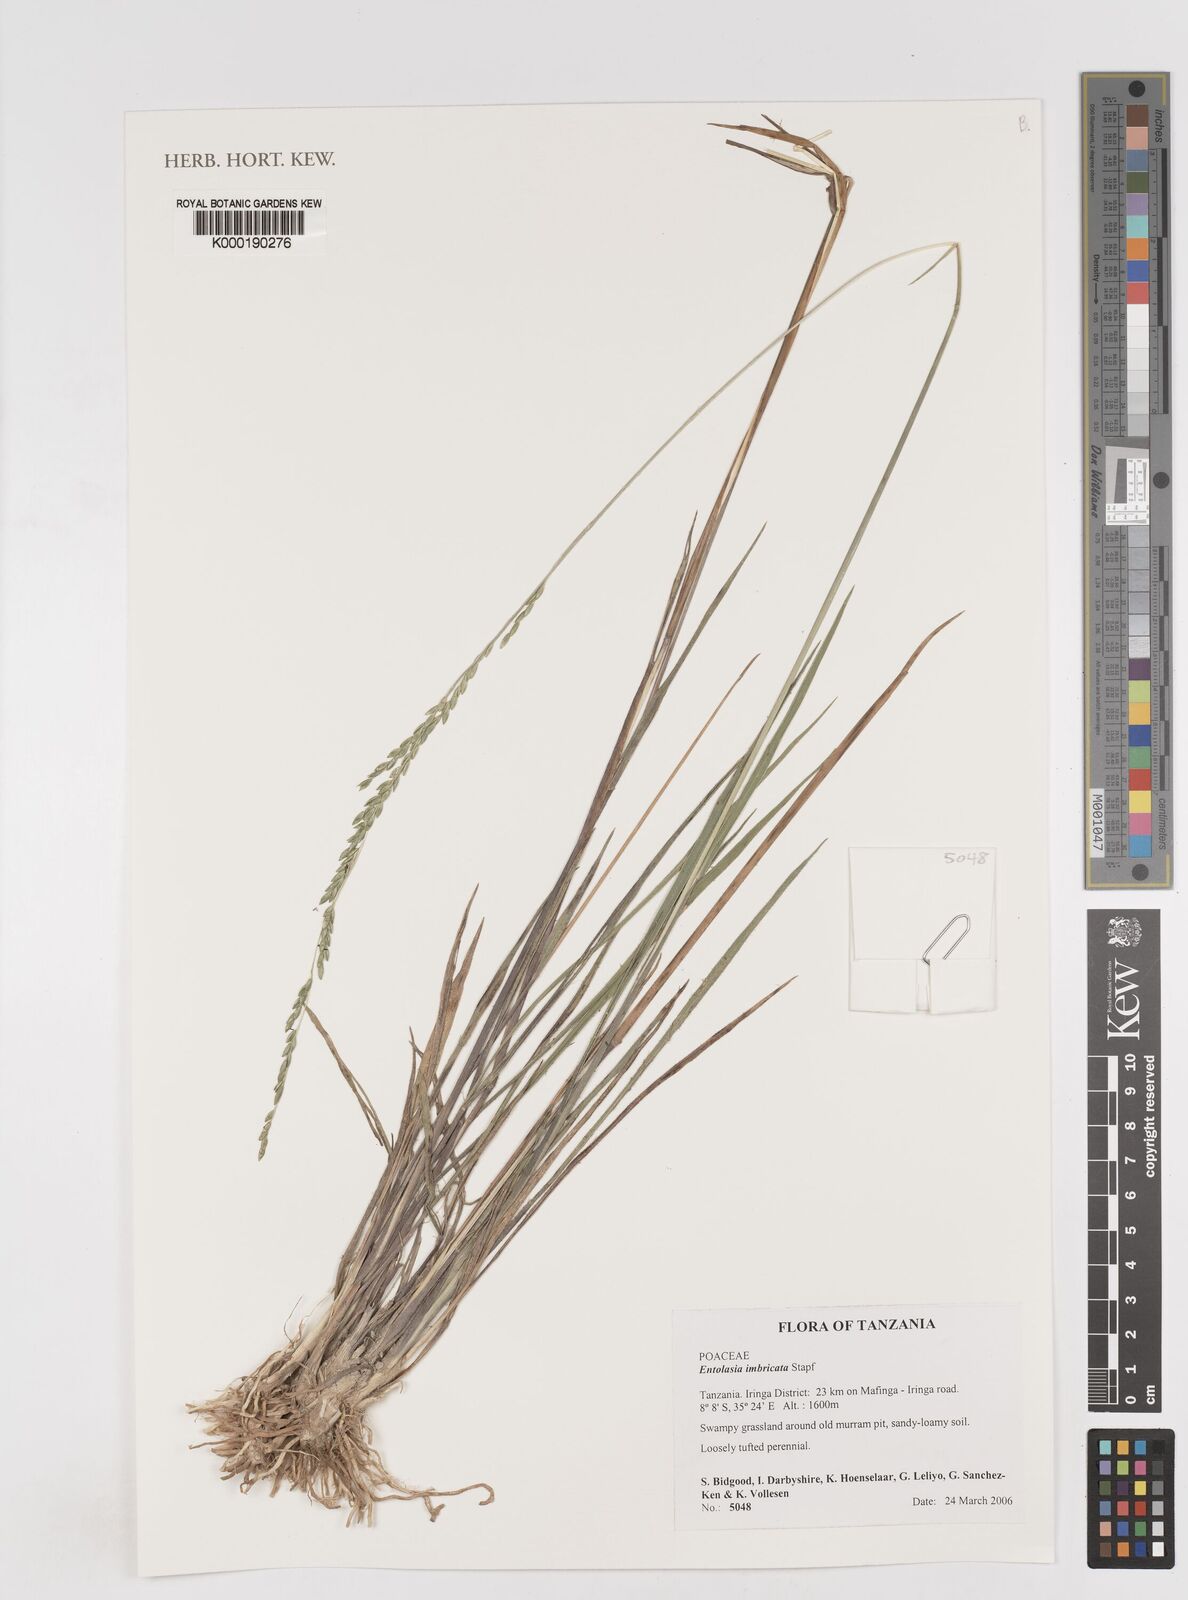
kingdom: Plantae
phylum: Tracheophyta
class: Liliopsida
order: Poales
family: Poaceae
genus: Entolasia
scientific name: Entolasia imbricata
